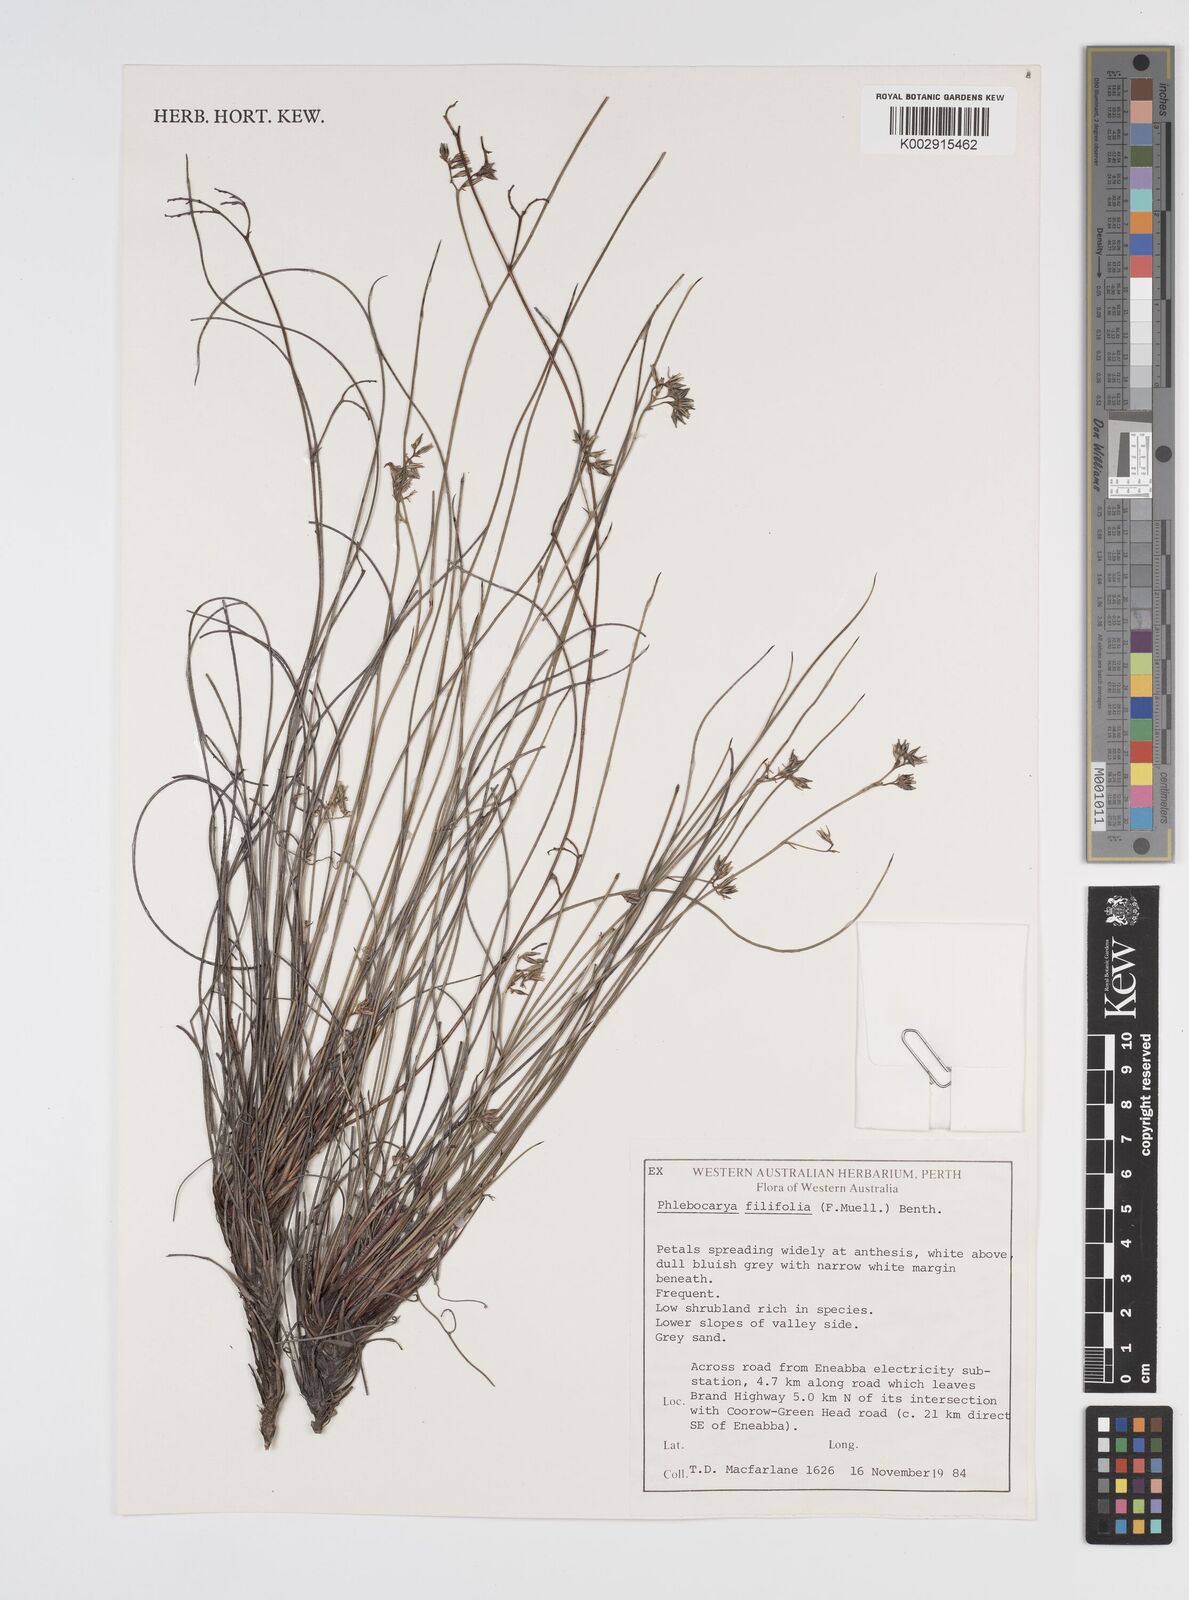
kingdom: Plantae
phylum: Tracheophyta
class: Liliopsida
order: Commelinales
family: Haemodoraceae
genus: Phlebocarya
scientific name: Phlebocarya filifolia
